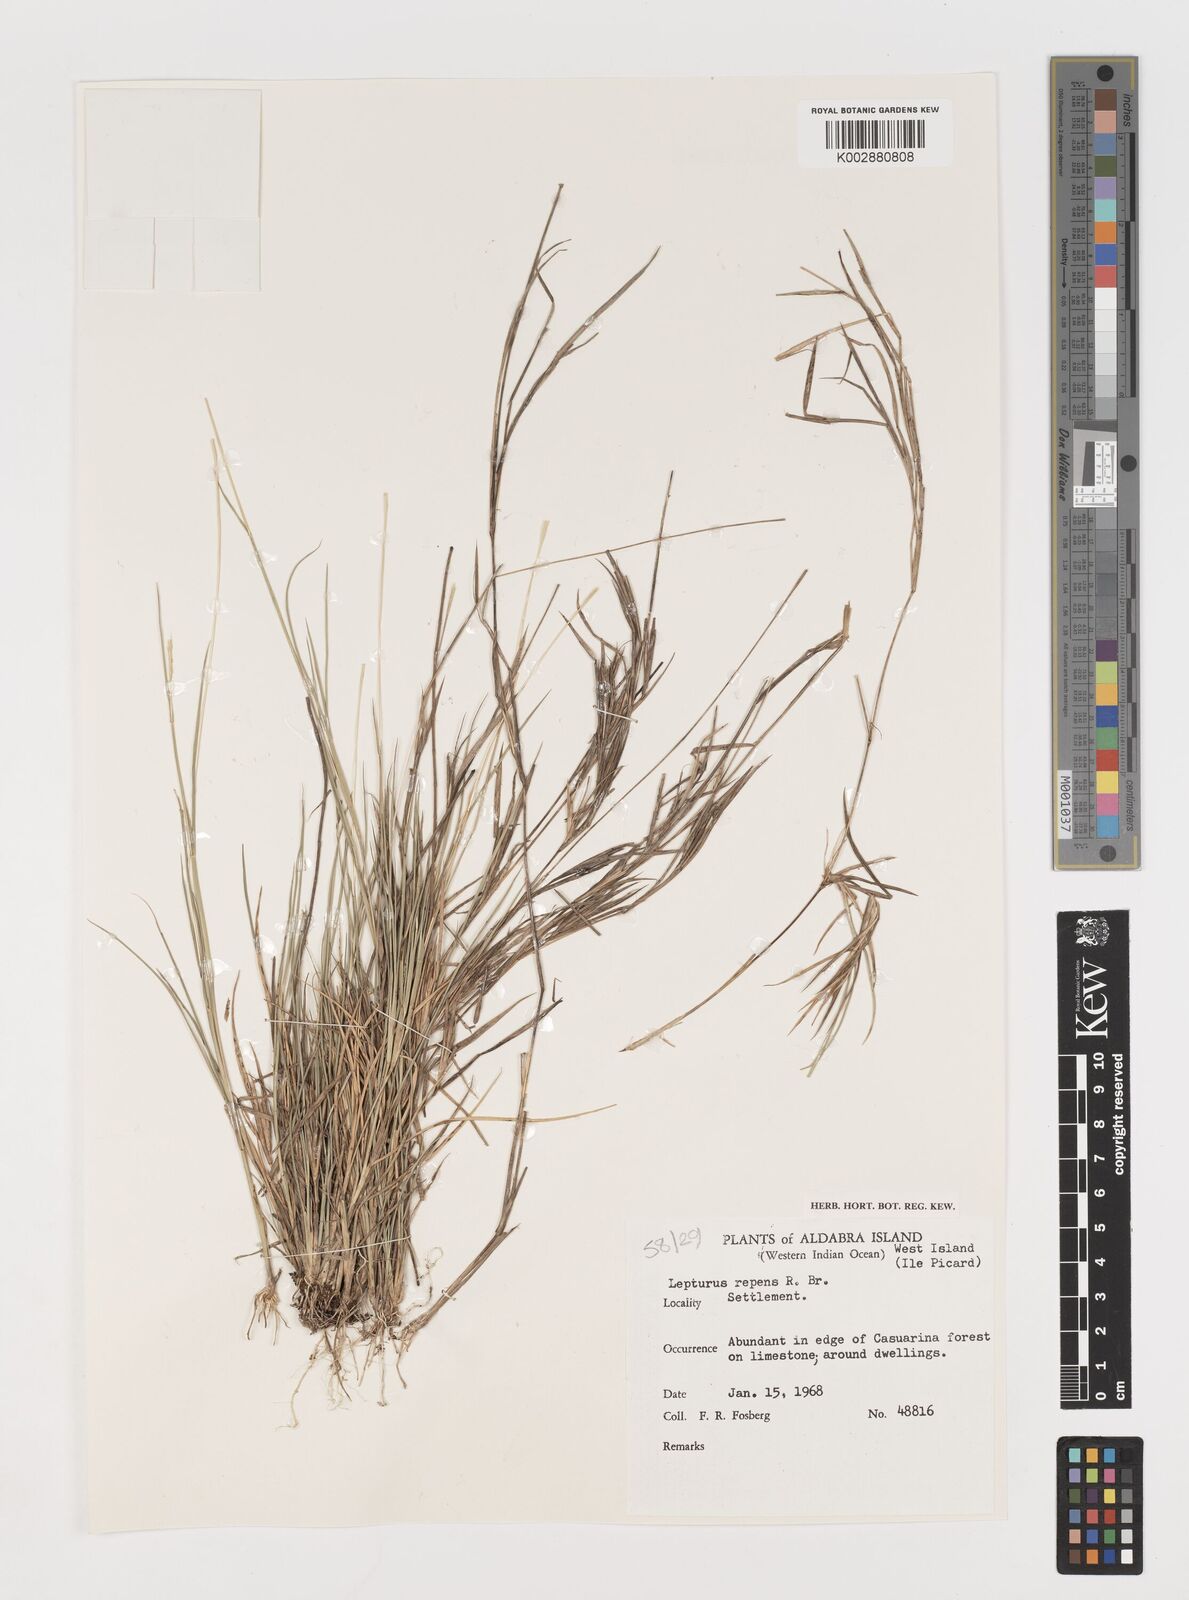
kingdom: Plantae
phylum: Tracheophyta
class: Liliopsida
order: Poales
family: Poaceae
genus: Lepturus
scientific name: Lepturus repens
